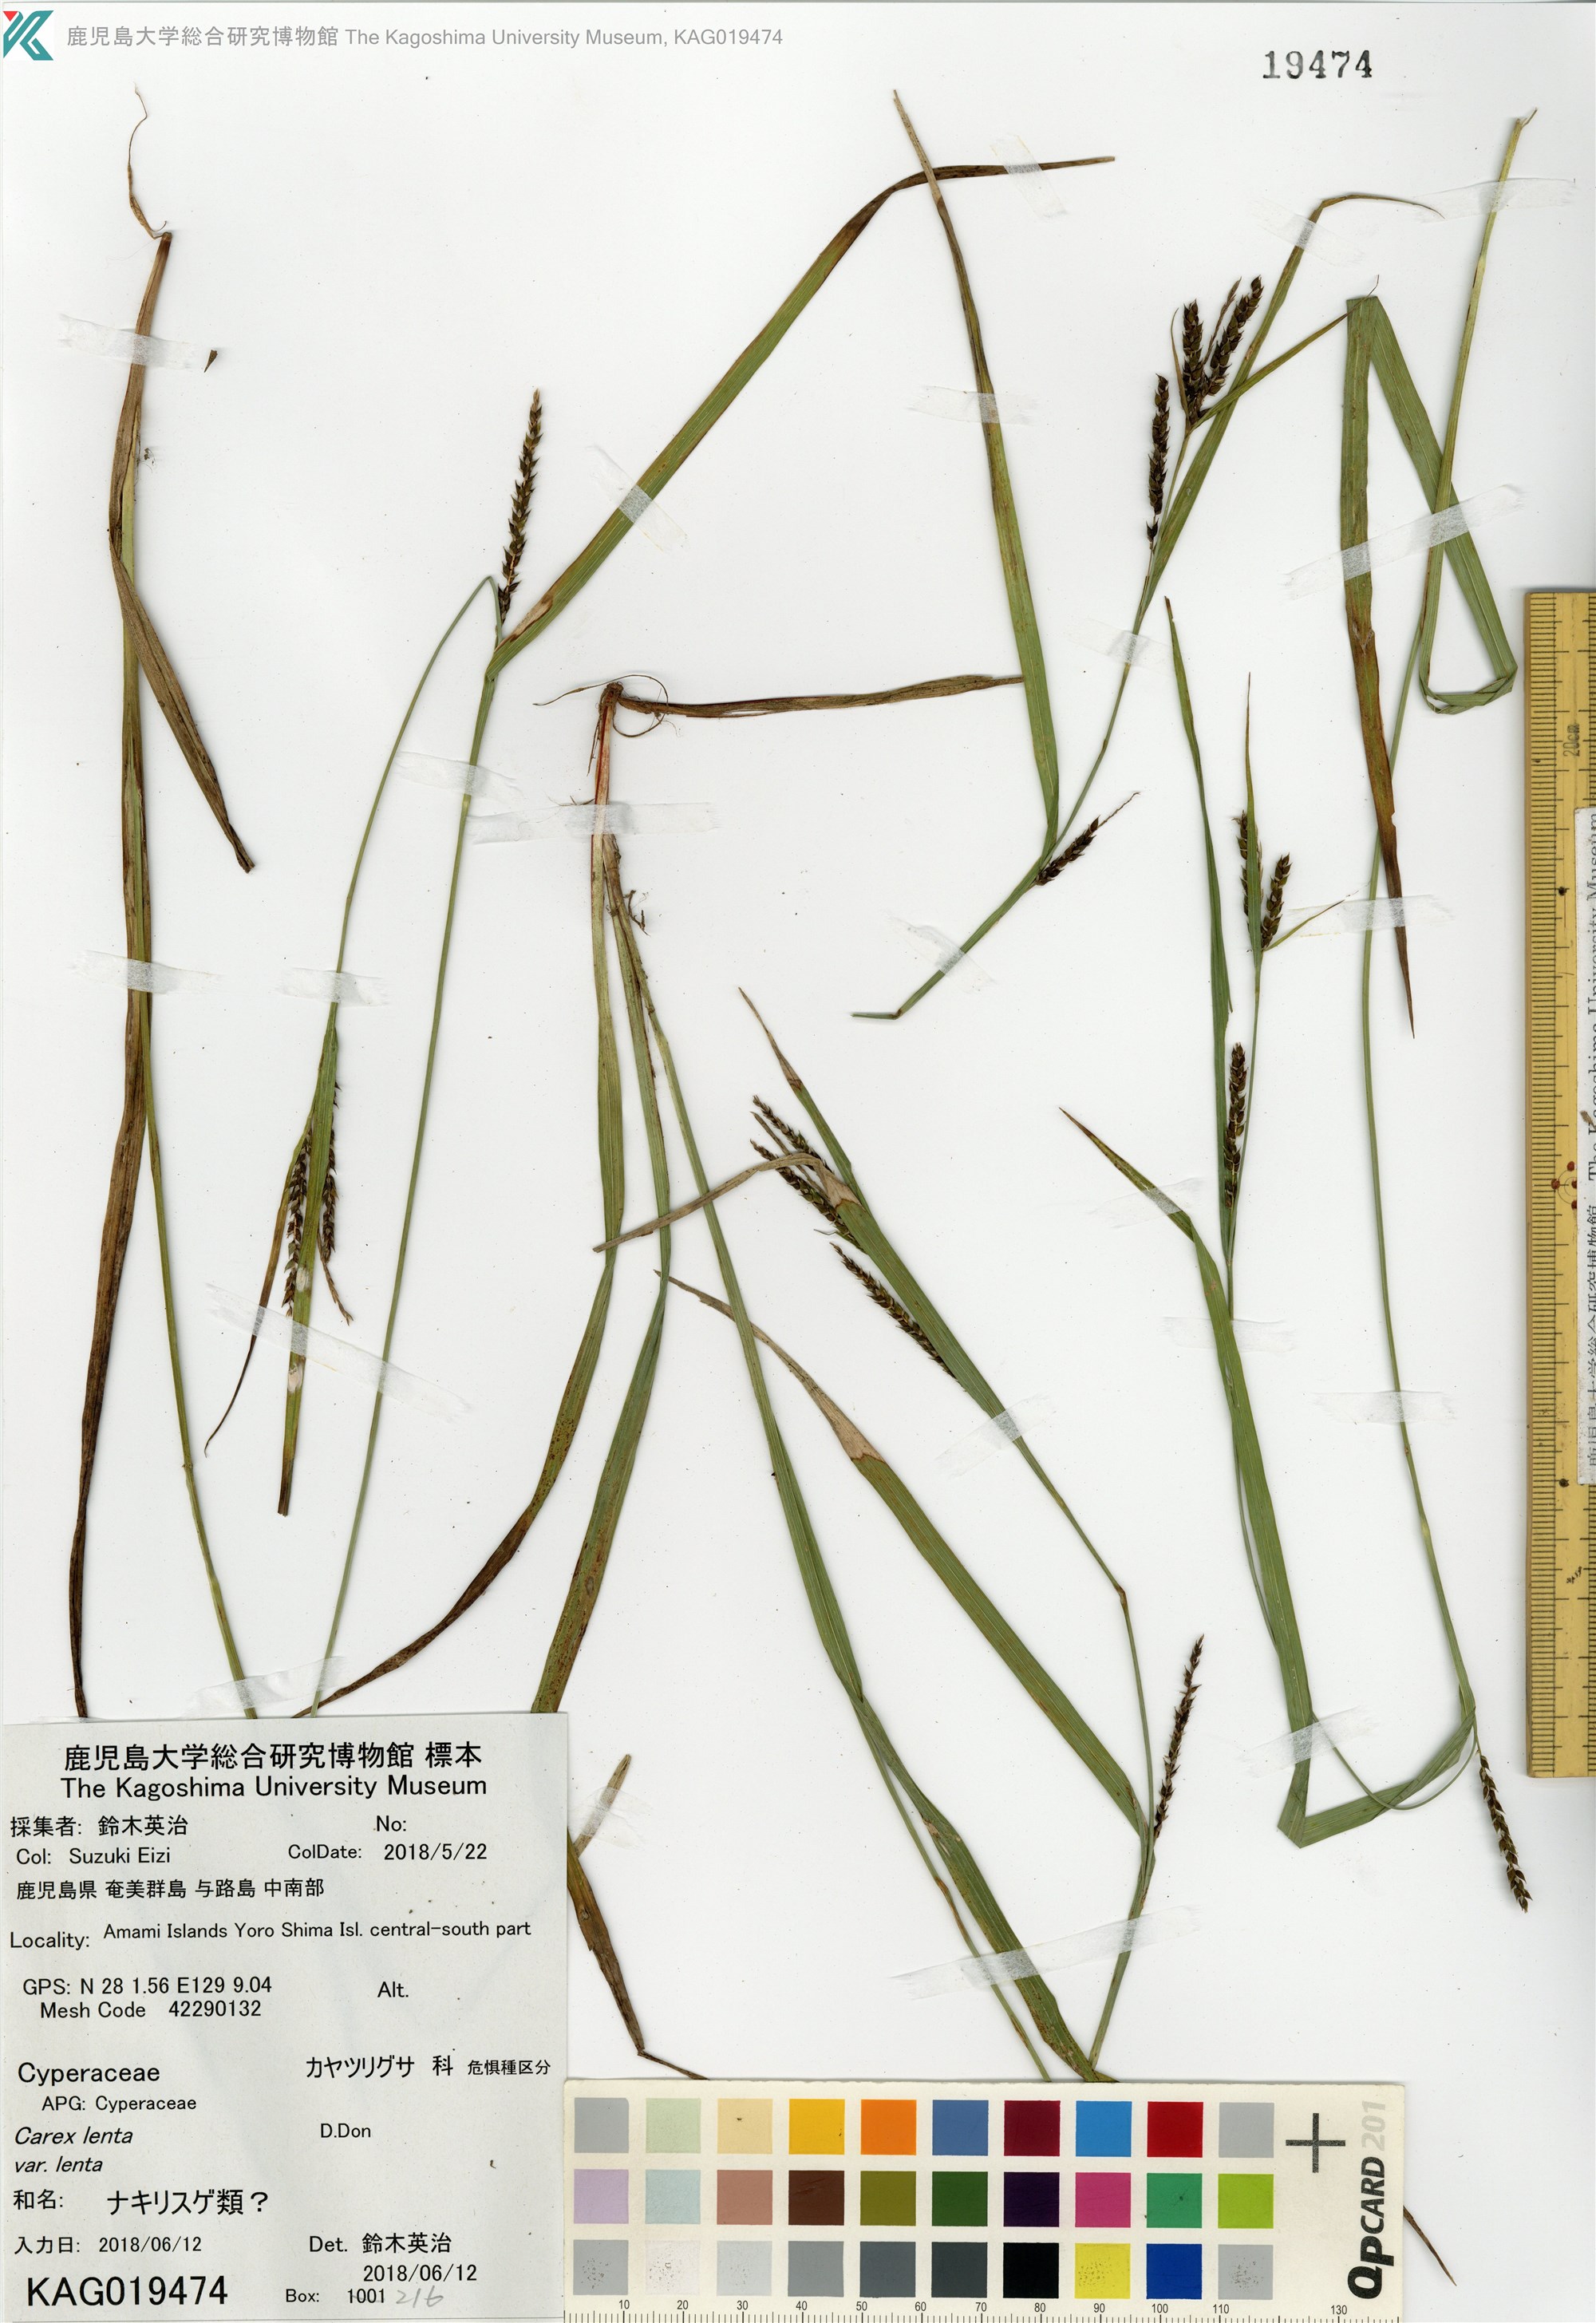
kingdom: Plantae
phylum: Tracheophyta
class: Liliopsida
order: Poales
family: Cyperaceae
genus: Carex
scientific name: Carex
